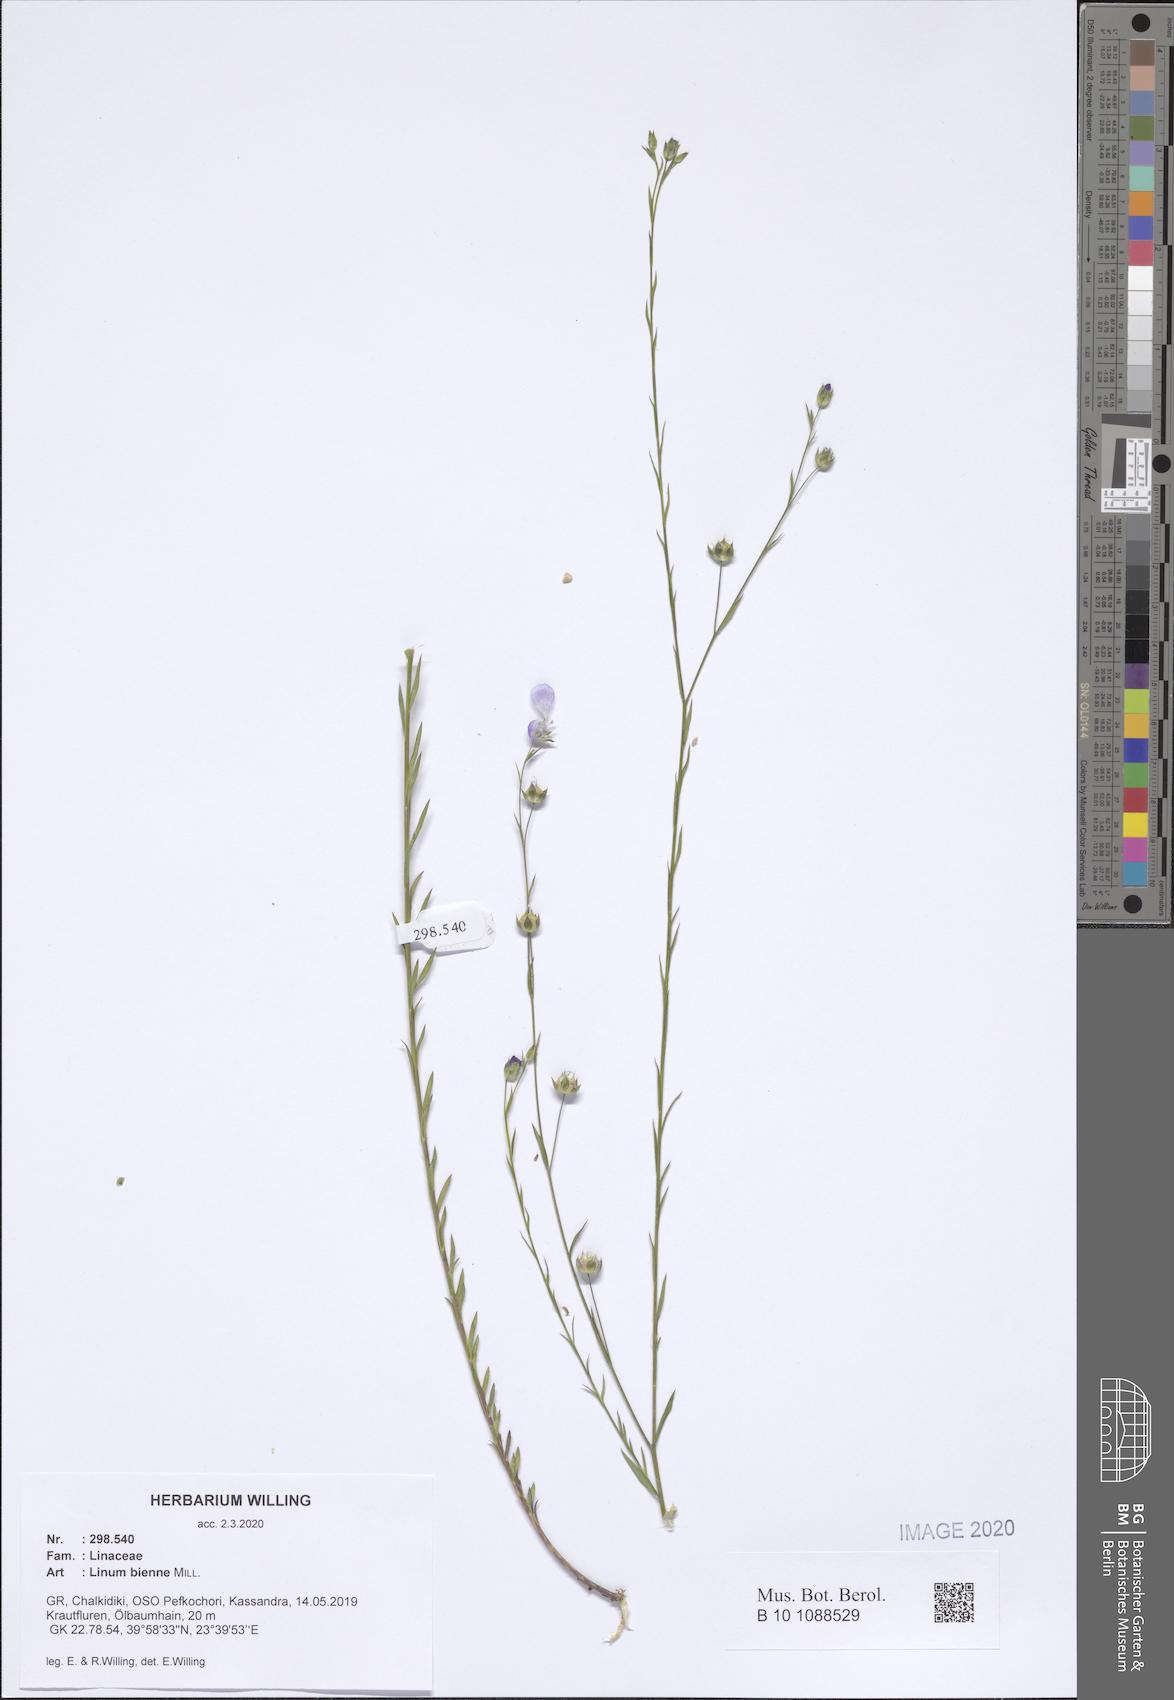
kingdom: Plantae
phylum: Tracheophyta
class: Magnoliopsida
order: Malpighiales
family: Linaceae
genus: Linum
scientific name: Linum bienne
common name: Pale flax
